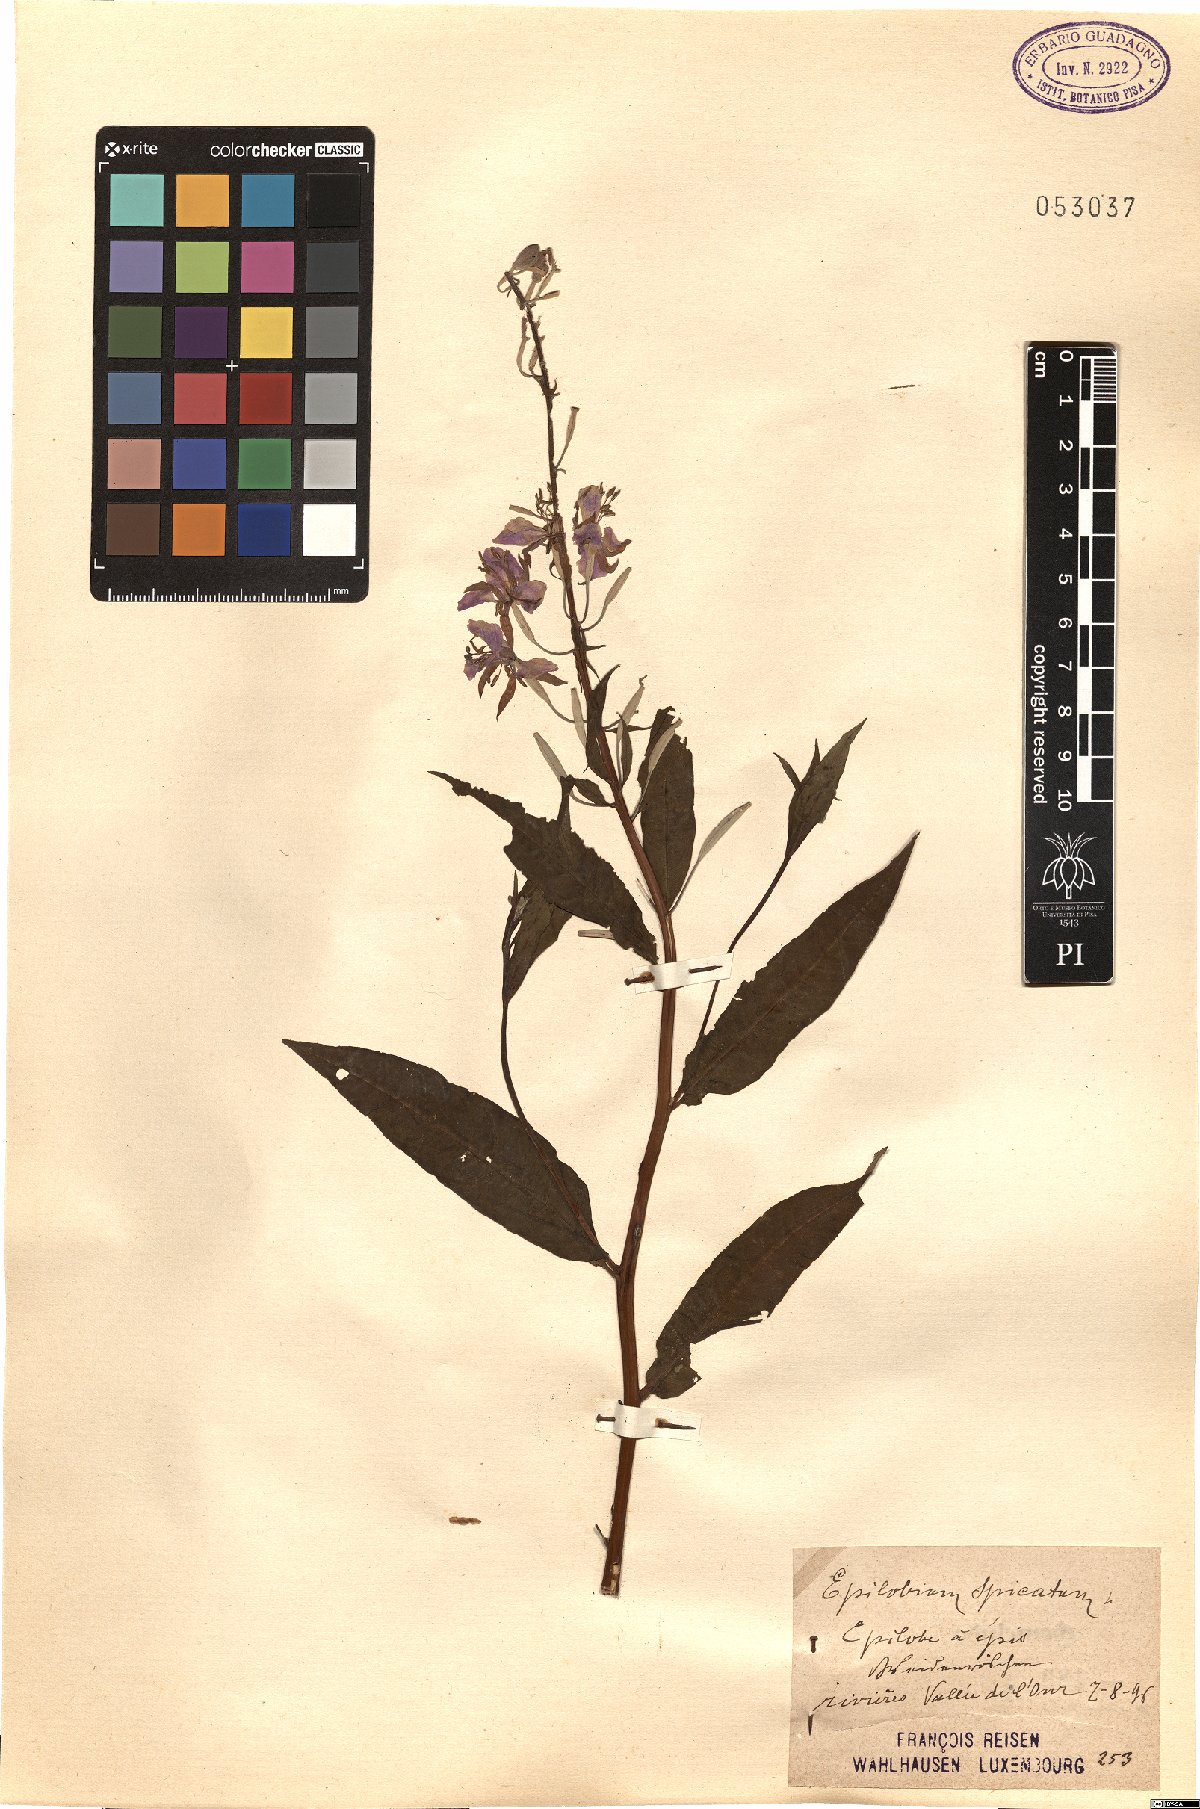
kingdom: Plantae
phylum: Tracheophyta
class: Magnoliopsida
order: Myrtales
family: Onagraceae
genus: Chamaenerion
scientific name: Chamaenerion angustifolium
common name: Fireweed
